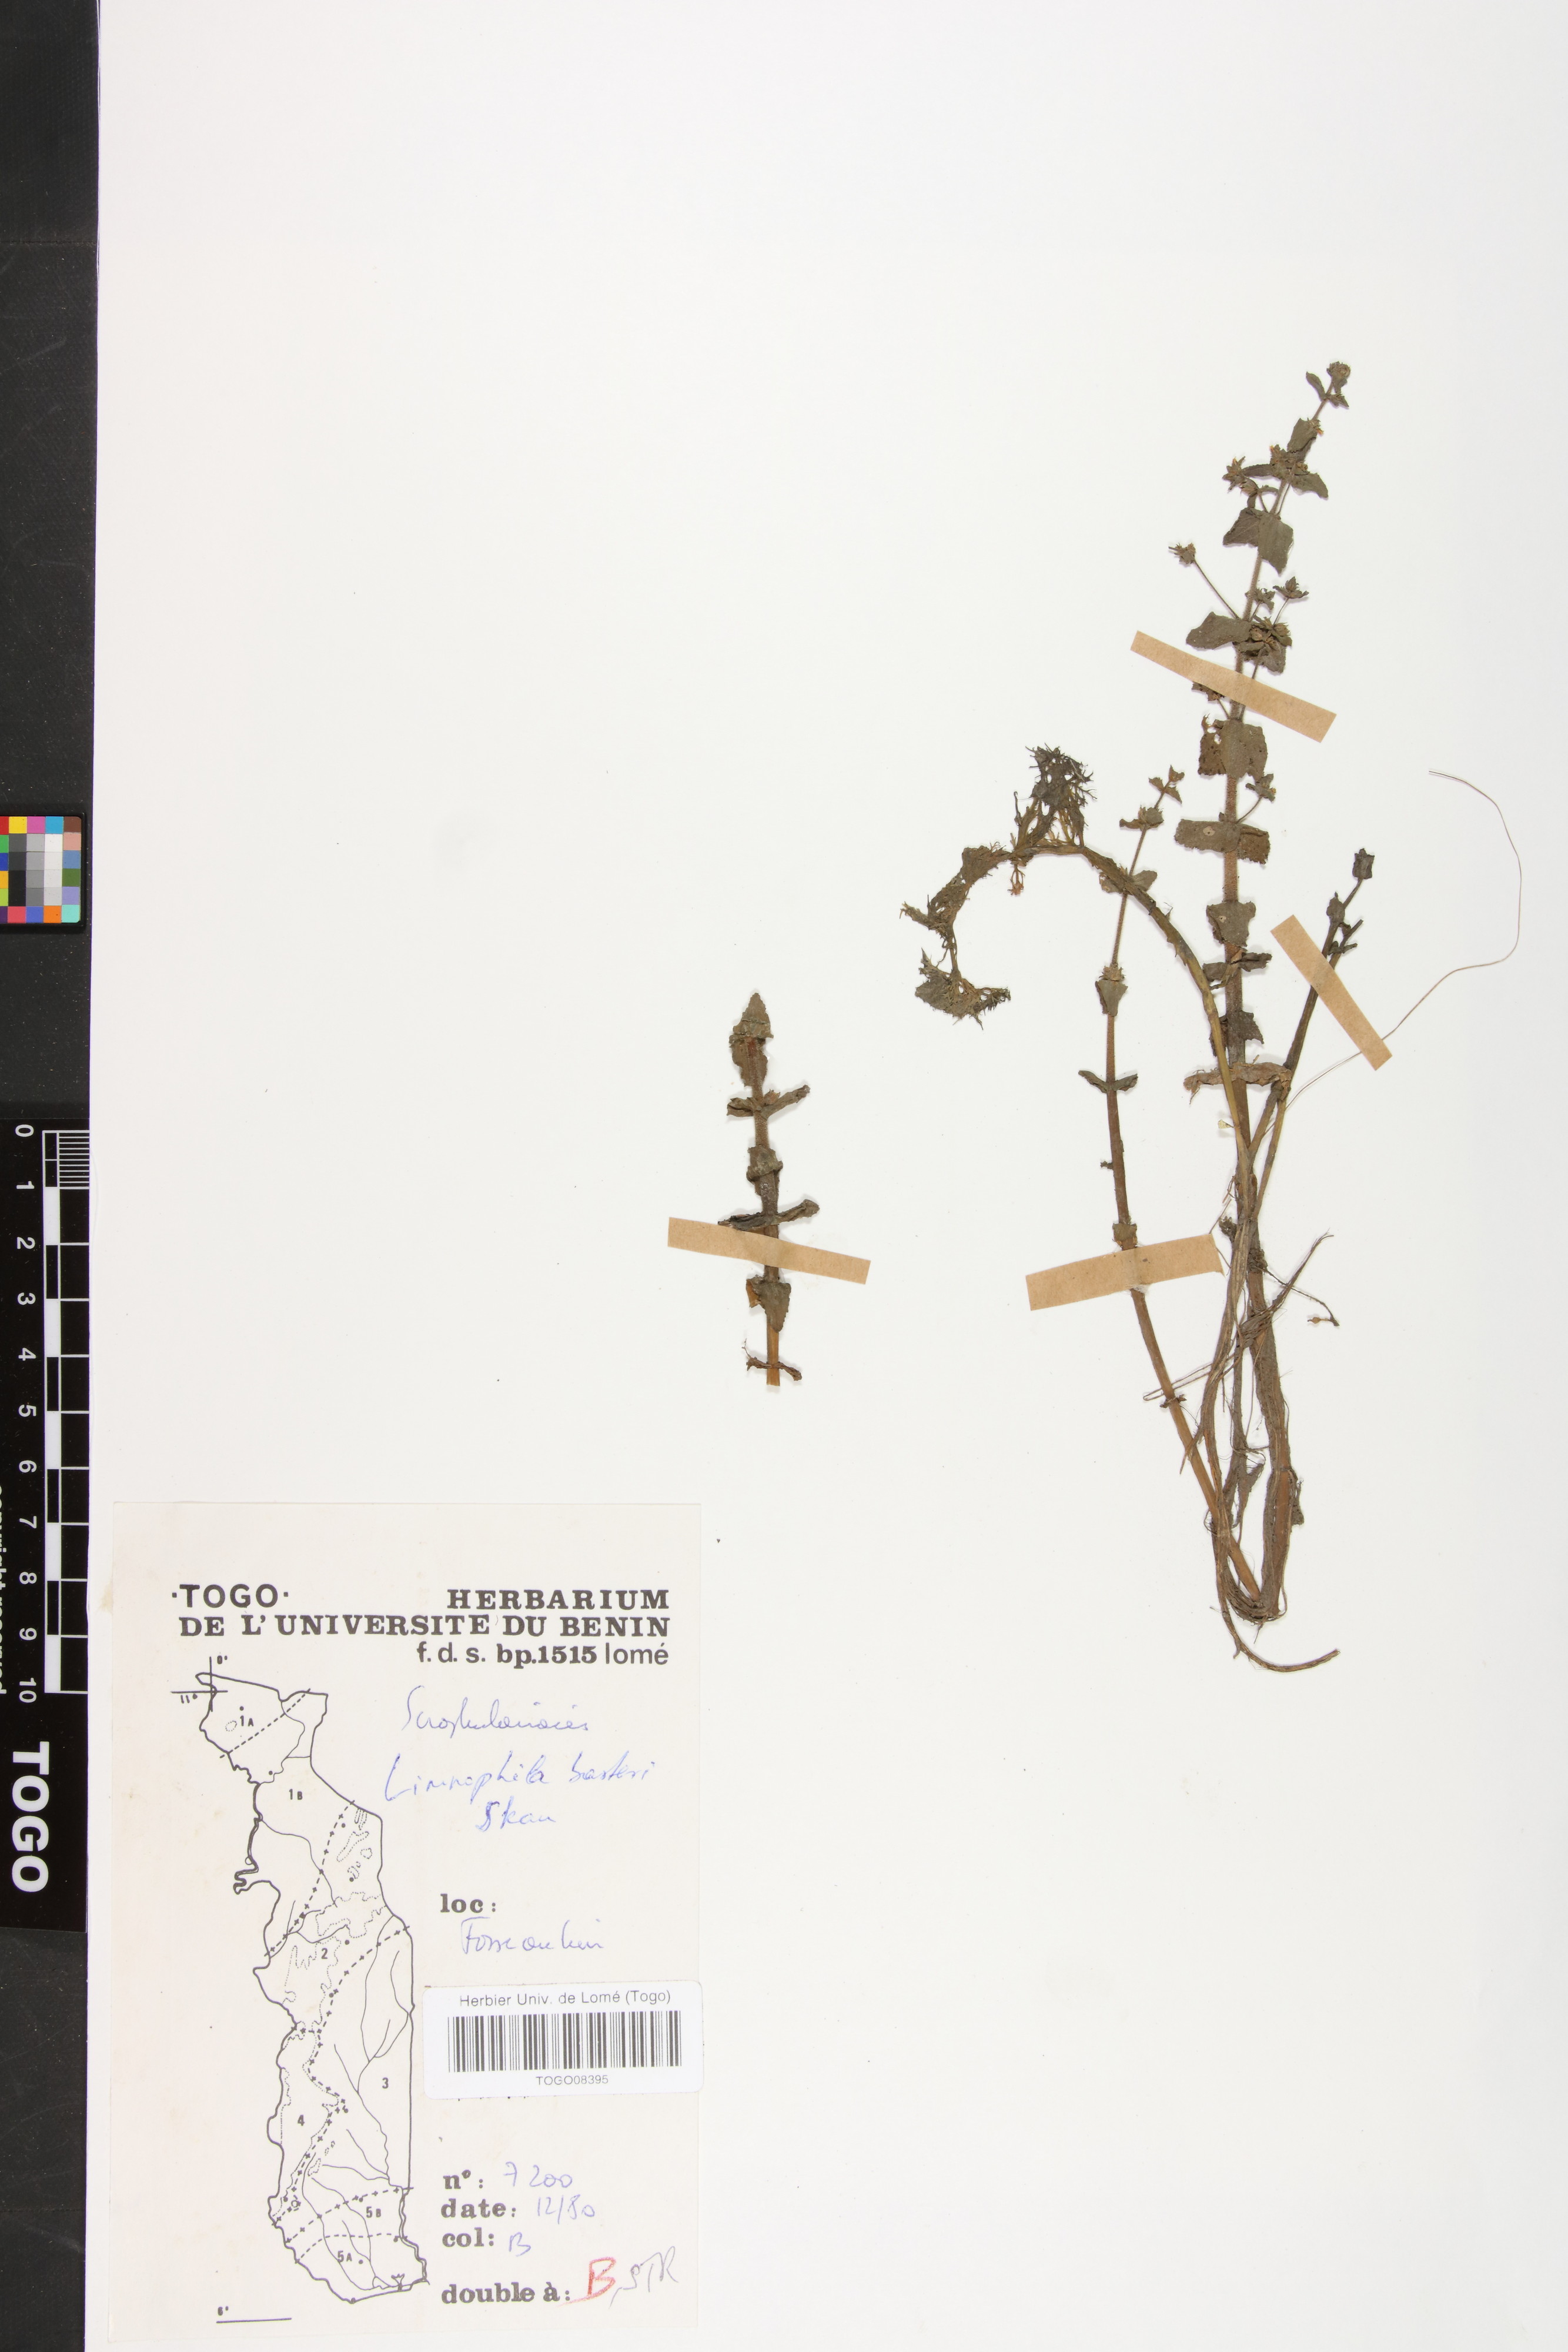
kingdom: Plantae
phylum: Tracheophyta
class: Magnoliopsida
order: Lamiales
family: Plantaginaceae
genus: Limnophila
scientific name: Limnophila barteri
